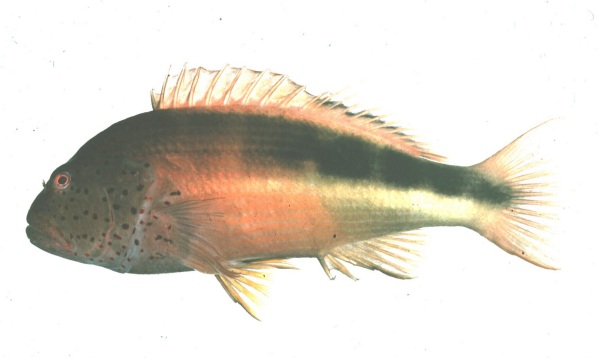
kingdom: Animalia
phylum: Chordata
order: Perciformes
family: Cirrhitidae
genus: Paracirrhites
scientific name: Paracirrhites forsteri
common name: Freckled hawkfish
